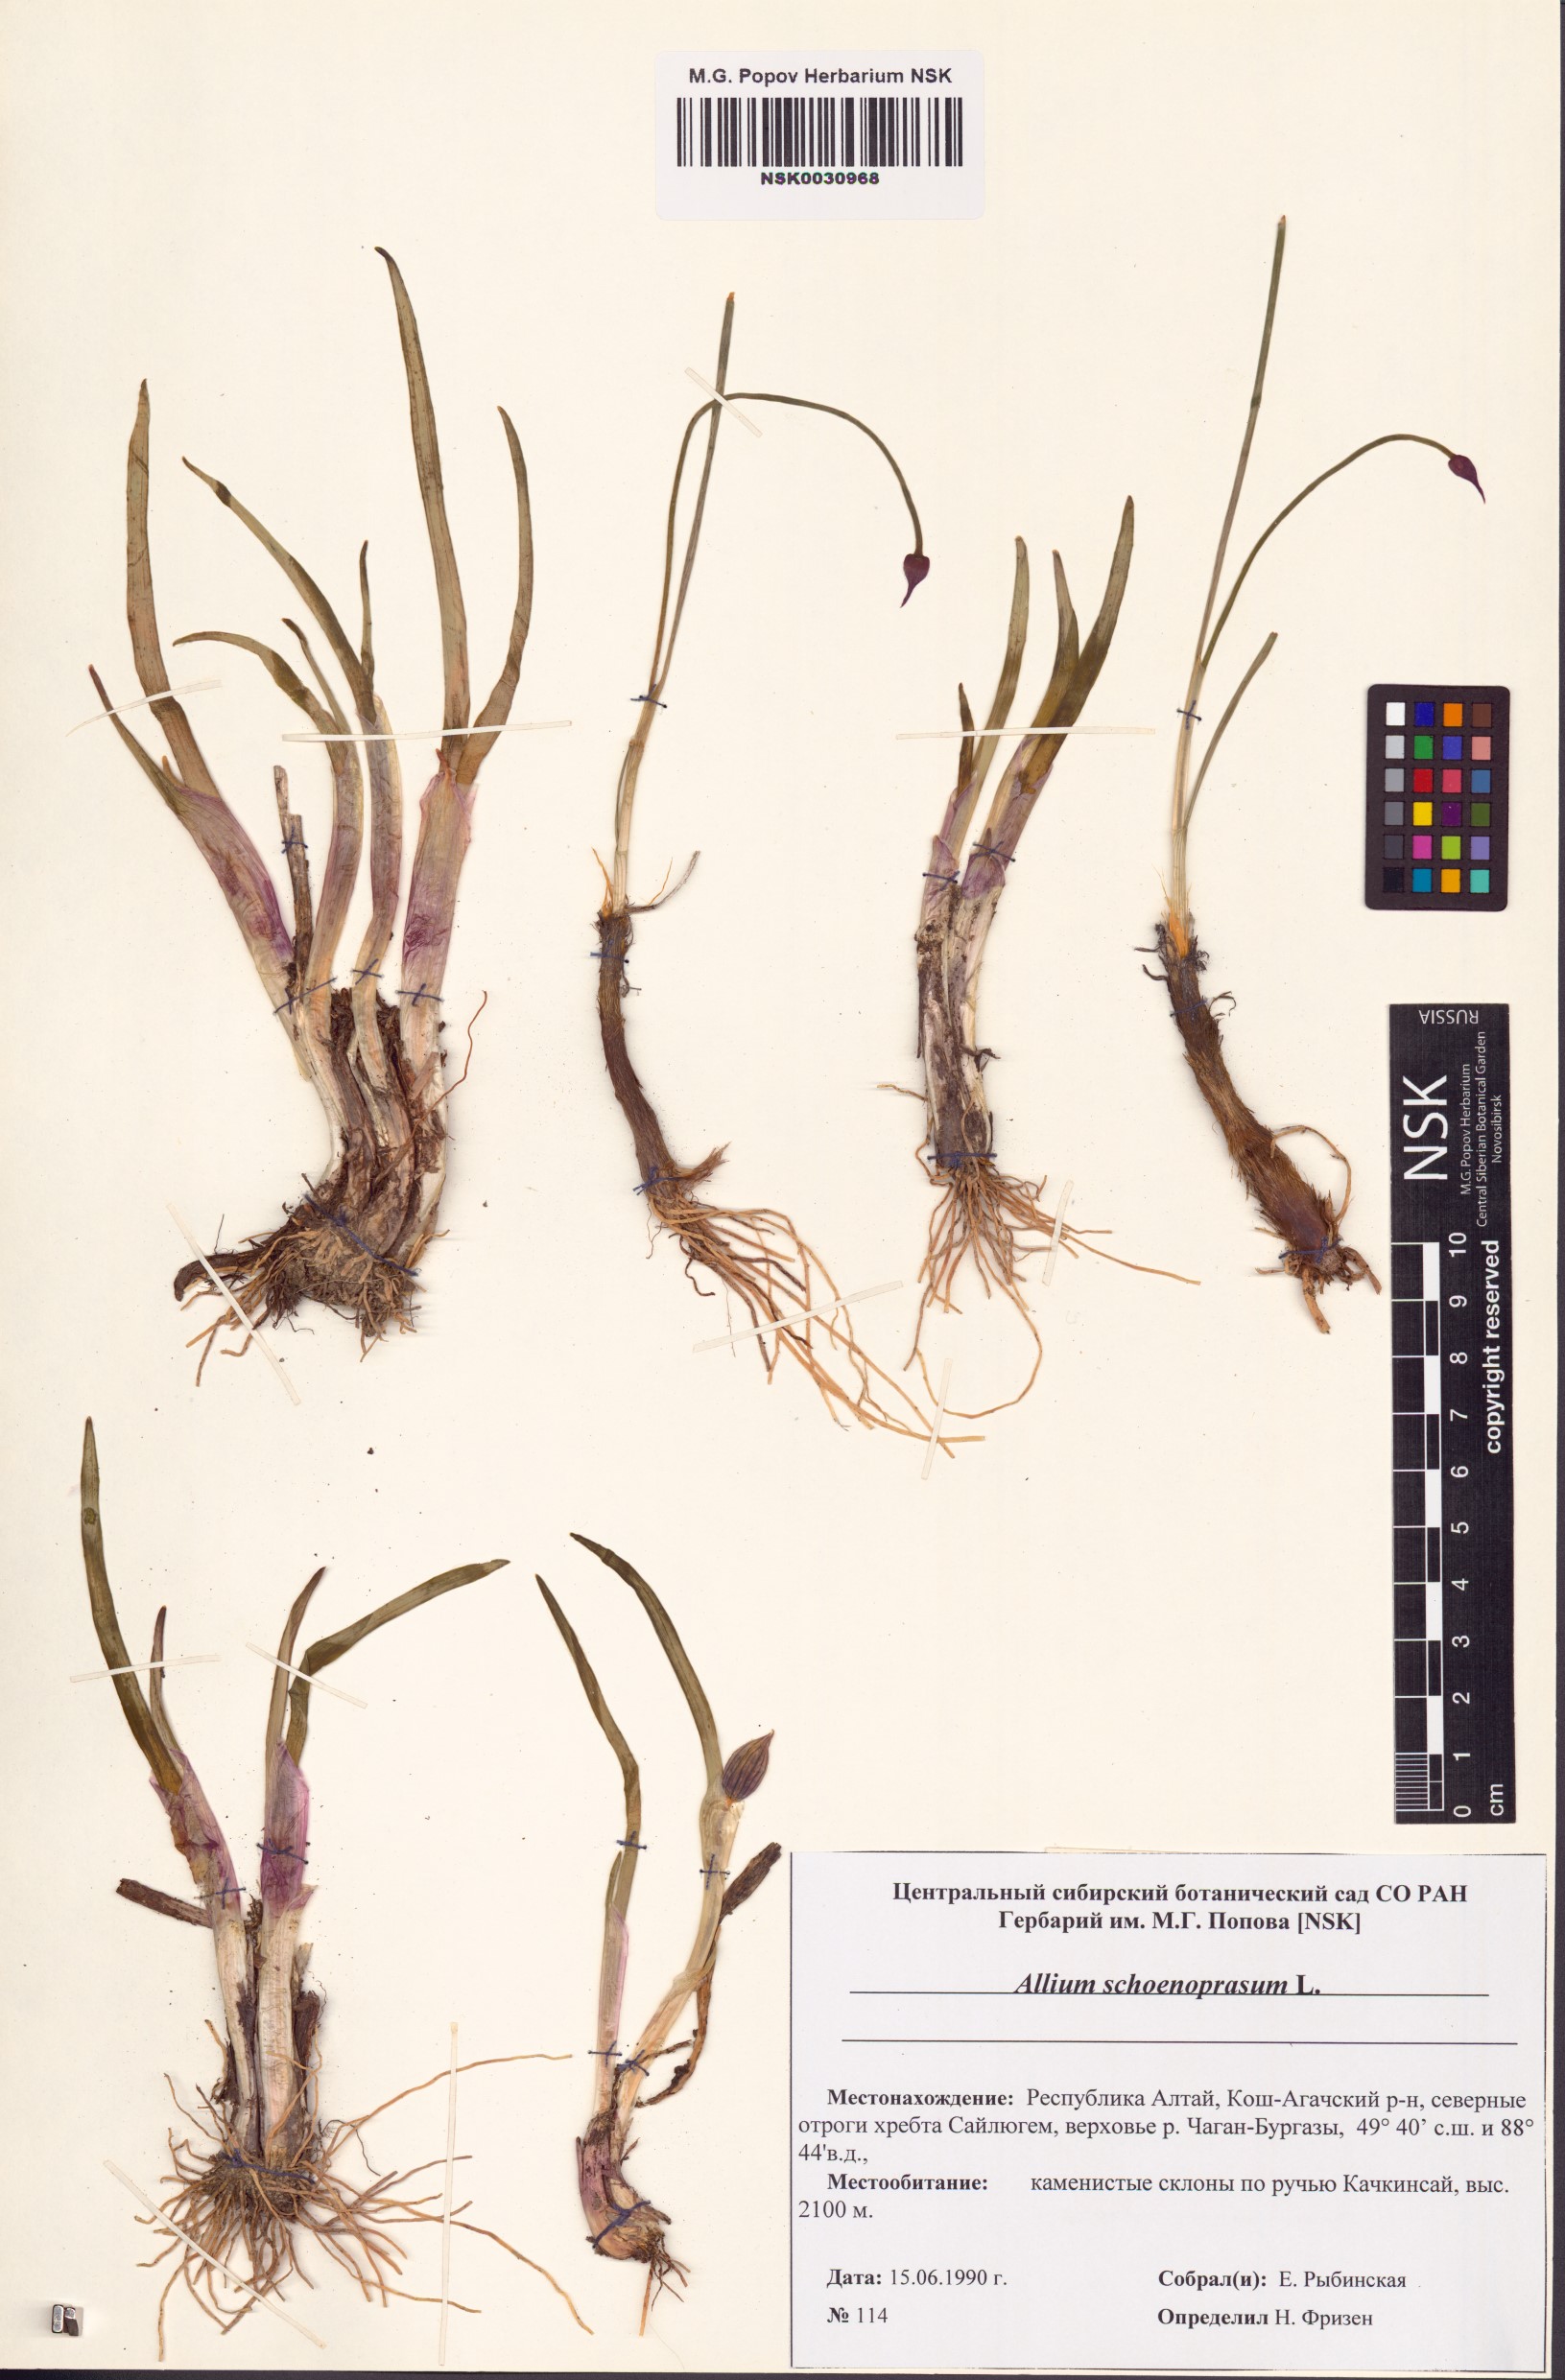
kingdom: Plantae
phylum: Tracheophyta
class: Liliopsida
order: Asparagales
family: Amaryllidaceae
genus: Allium
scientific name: Allium schoenoprasum
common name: Chives
